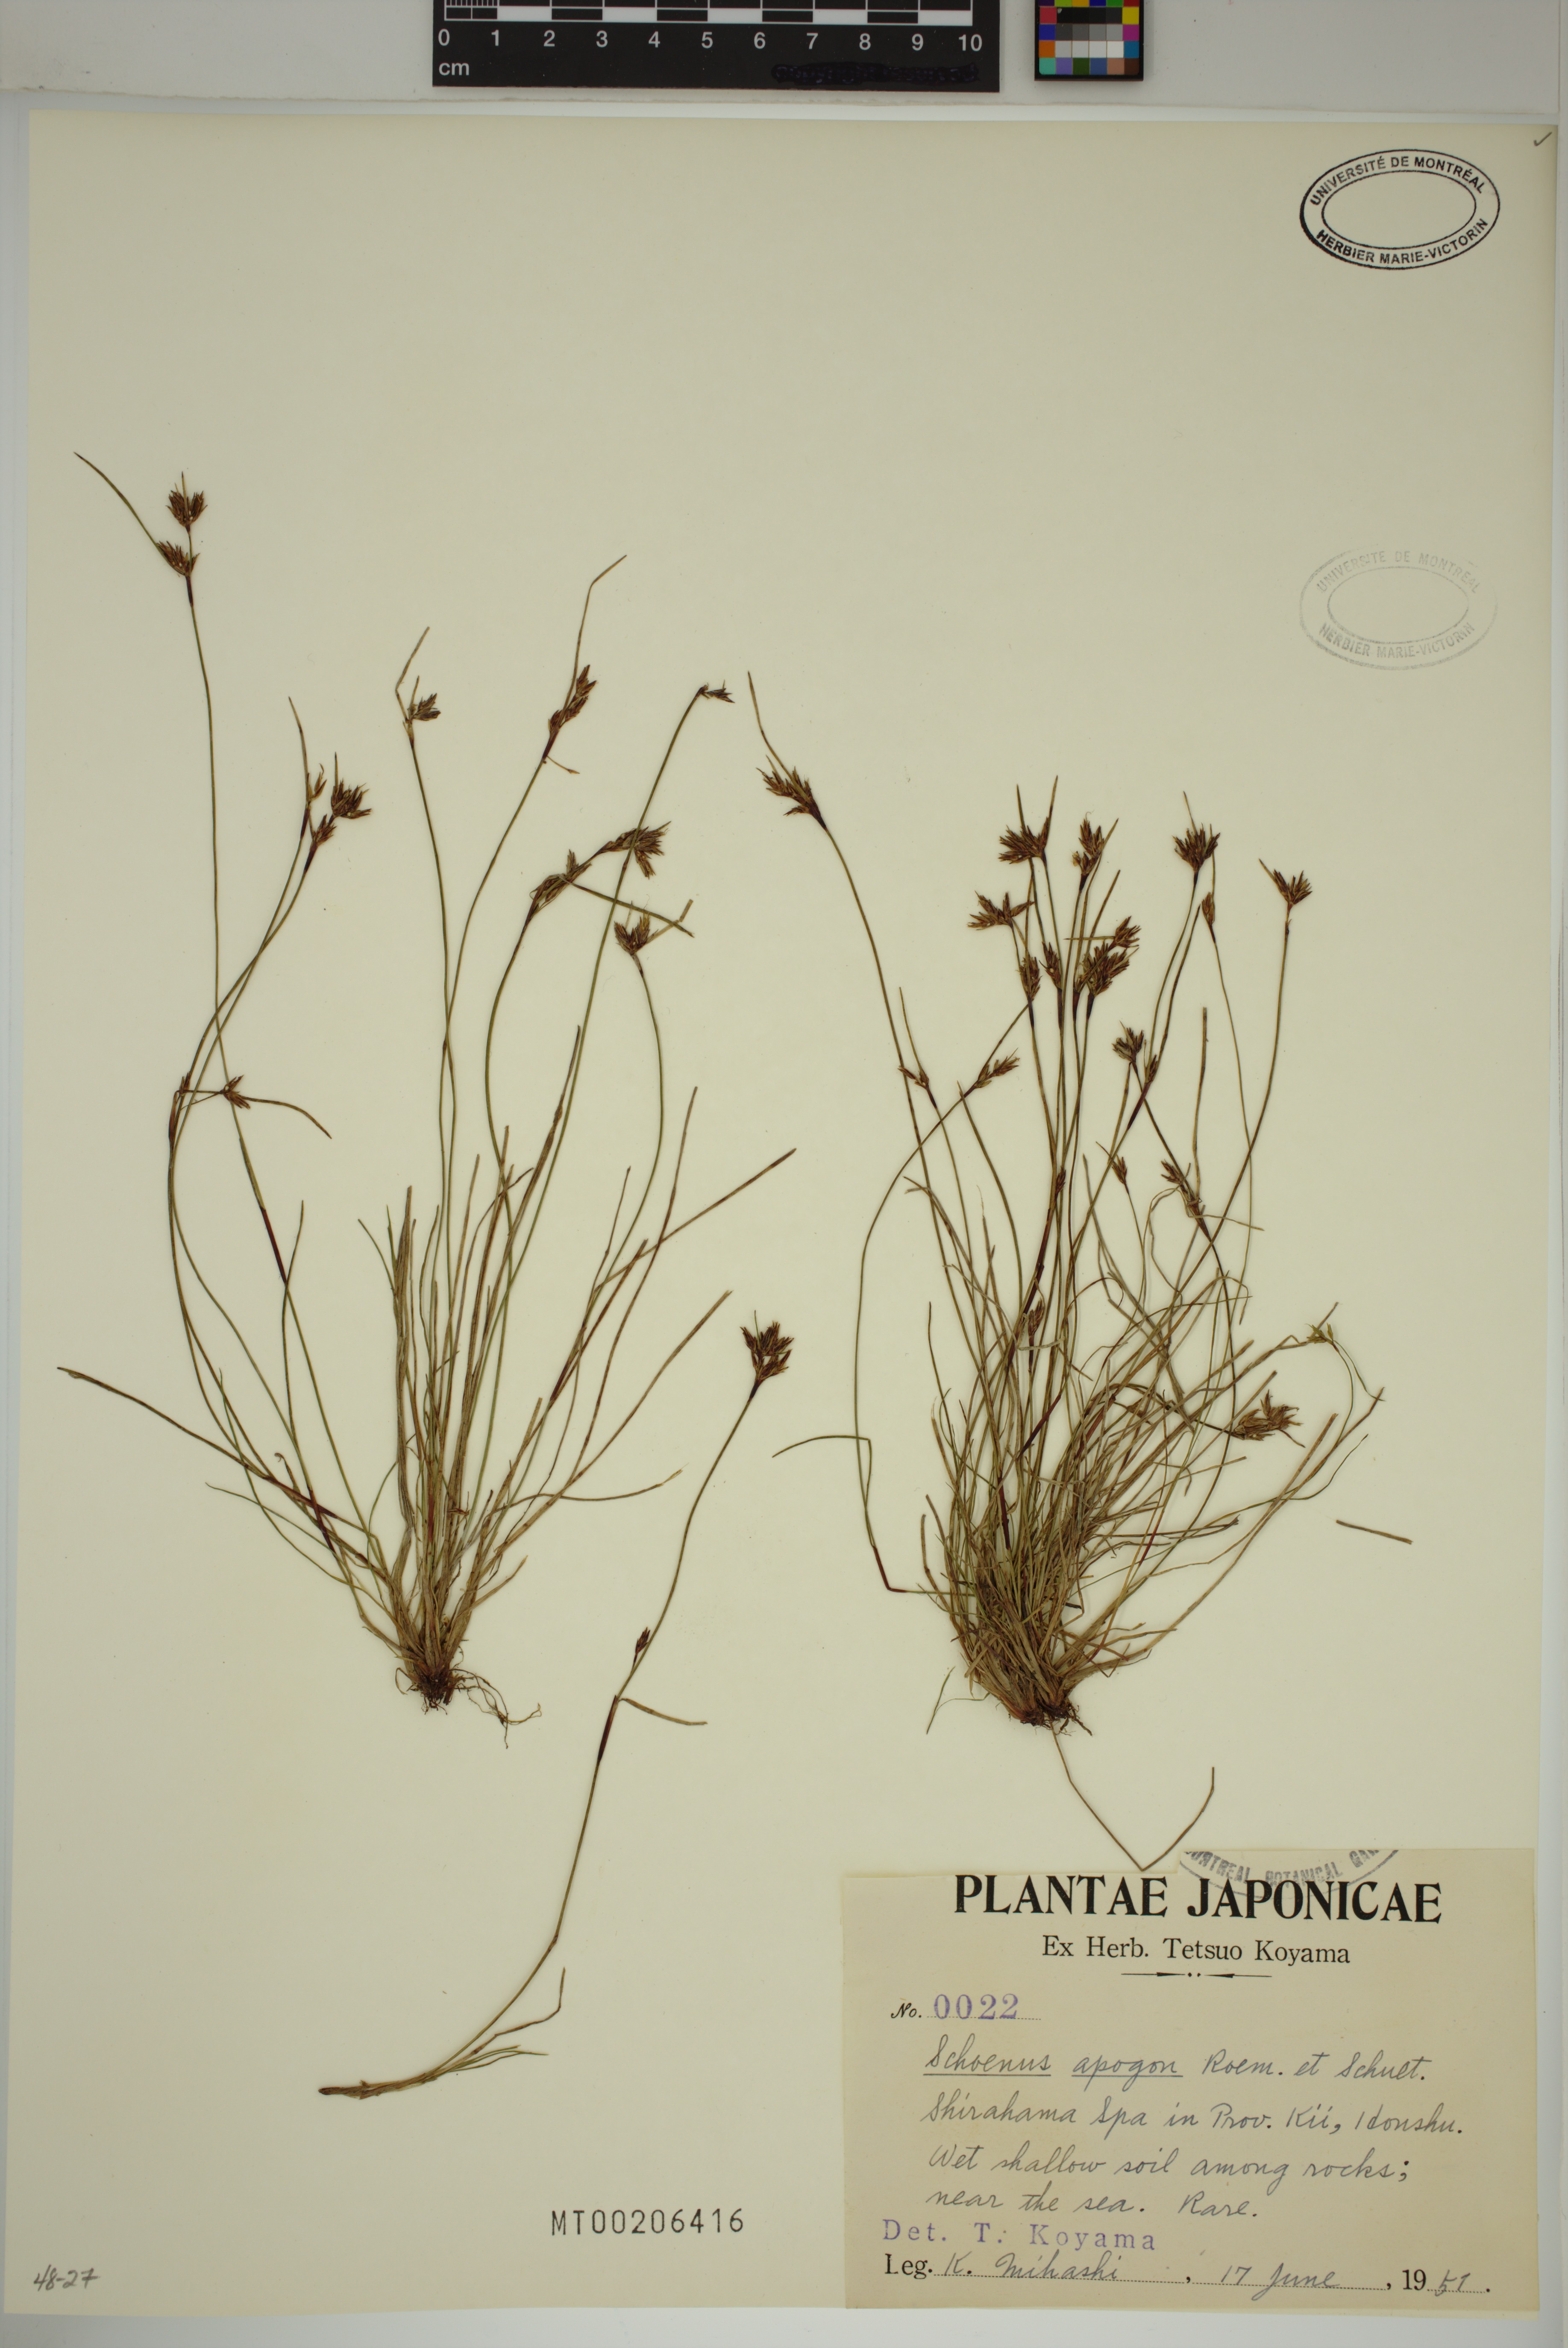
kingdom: Plantae
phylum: Tracheophyta
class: Liliopsida
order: Poales
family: Cyperaceae
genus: Schoenus
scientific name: Schoenus apogon
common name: Smooth bogrush
